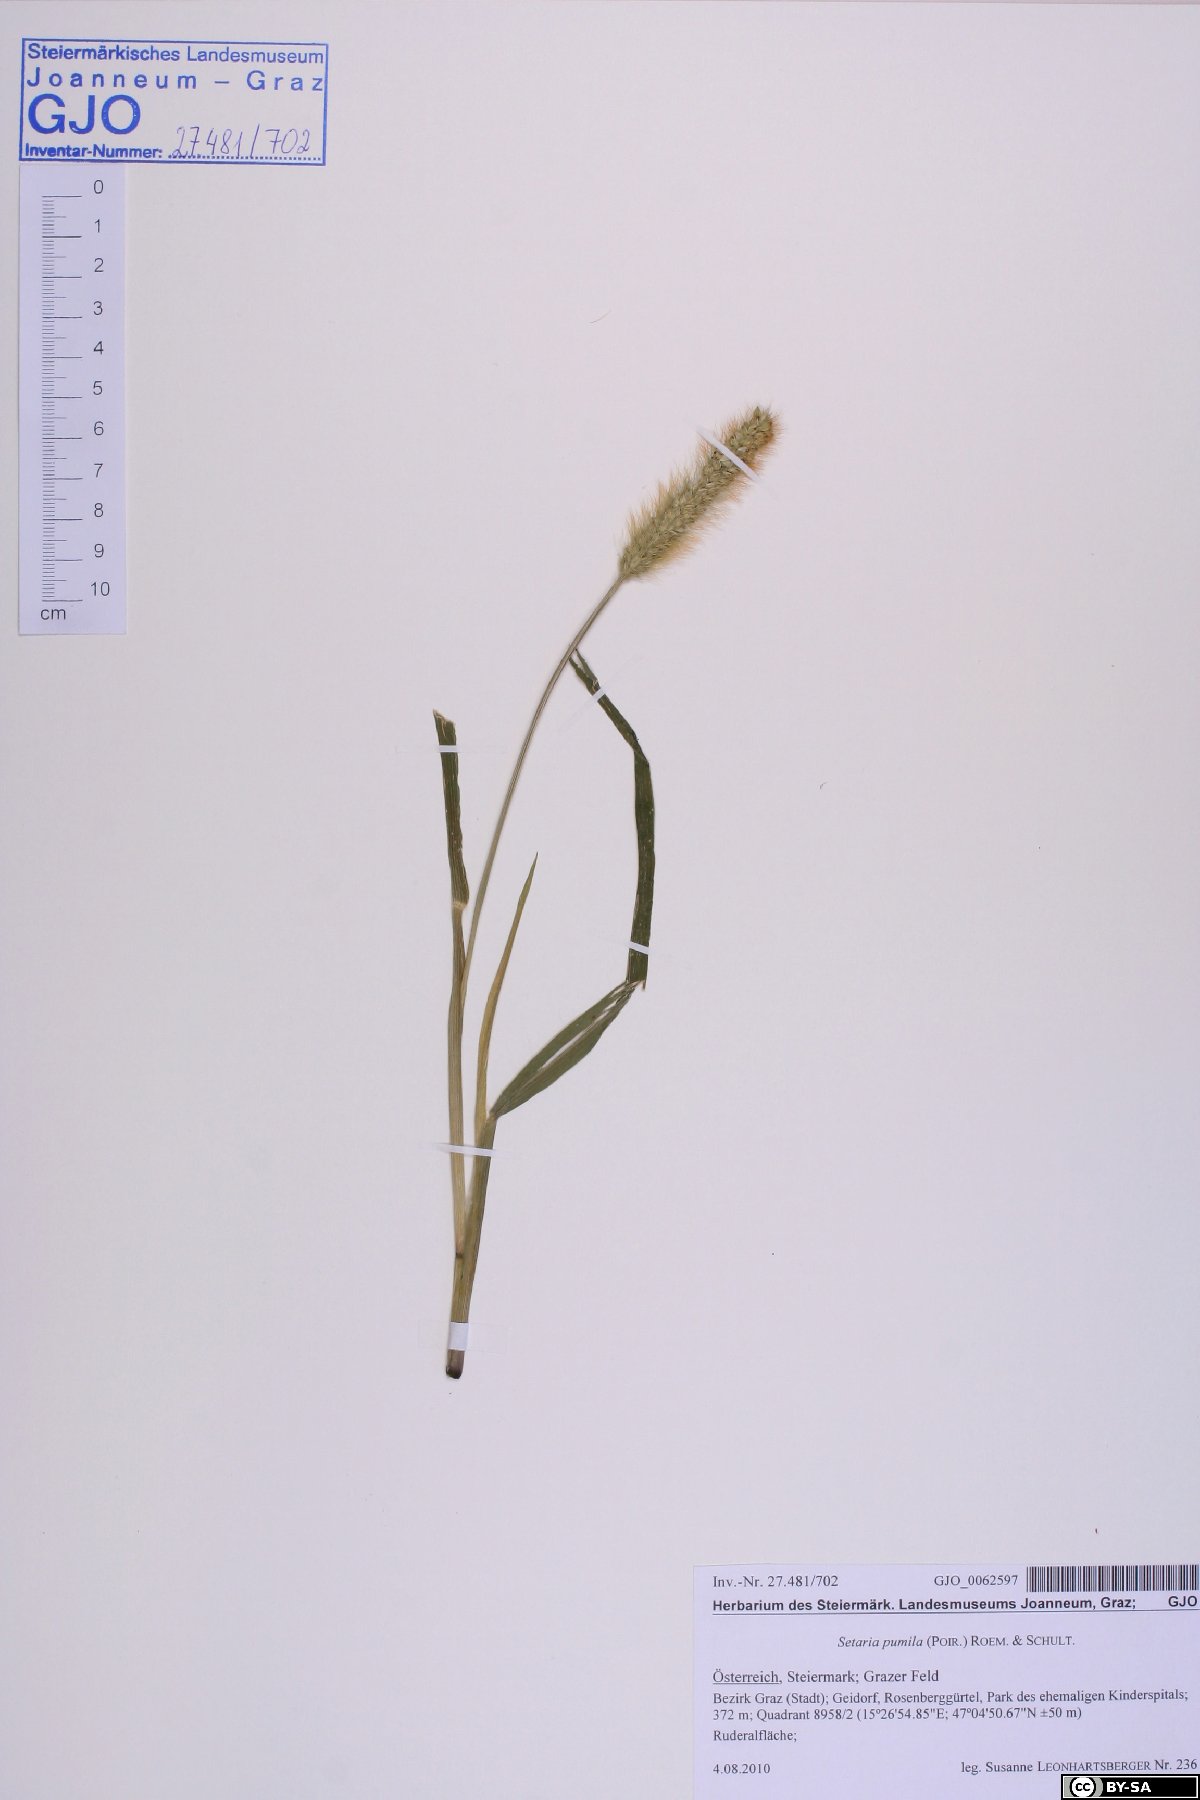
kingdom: Plantae
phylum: Tracheophyta
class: Liliopsida
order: Poales
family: Poaceae
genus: Setaria
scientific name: Setaria pumila
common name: Yellow bristle-grass
